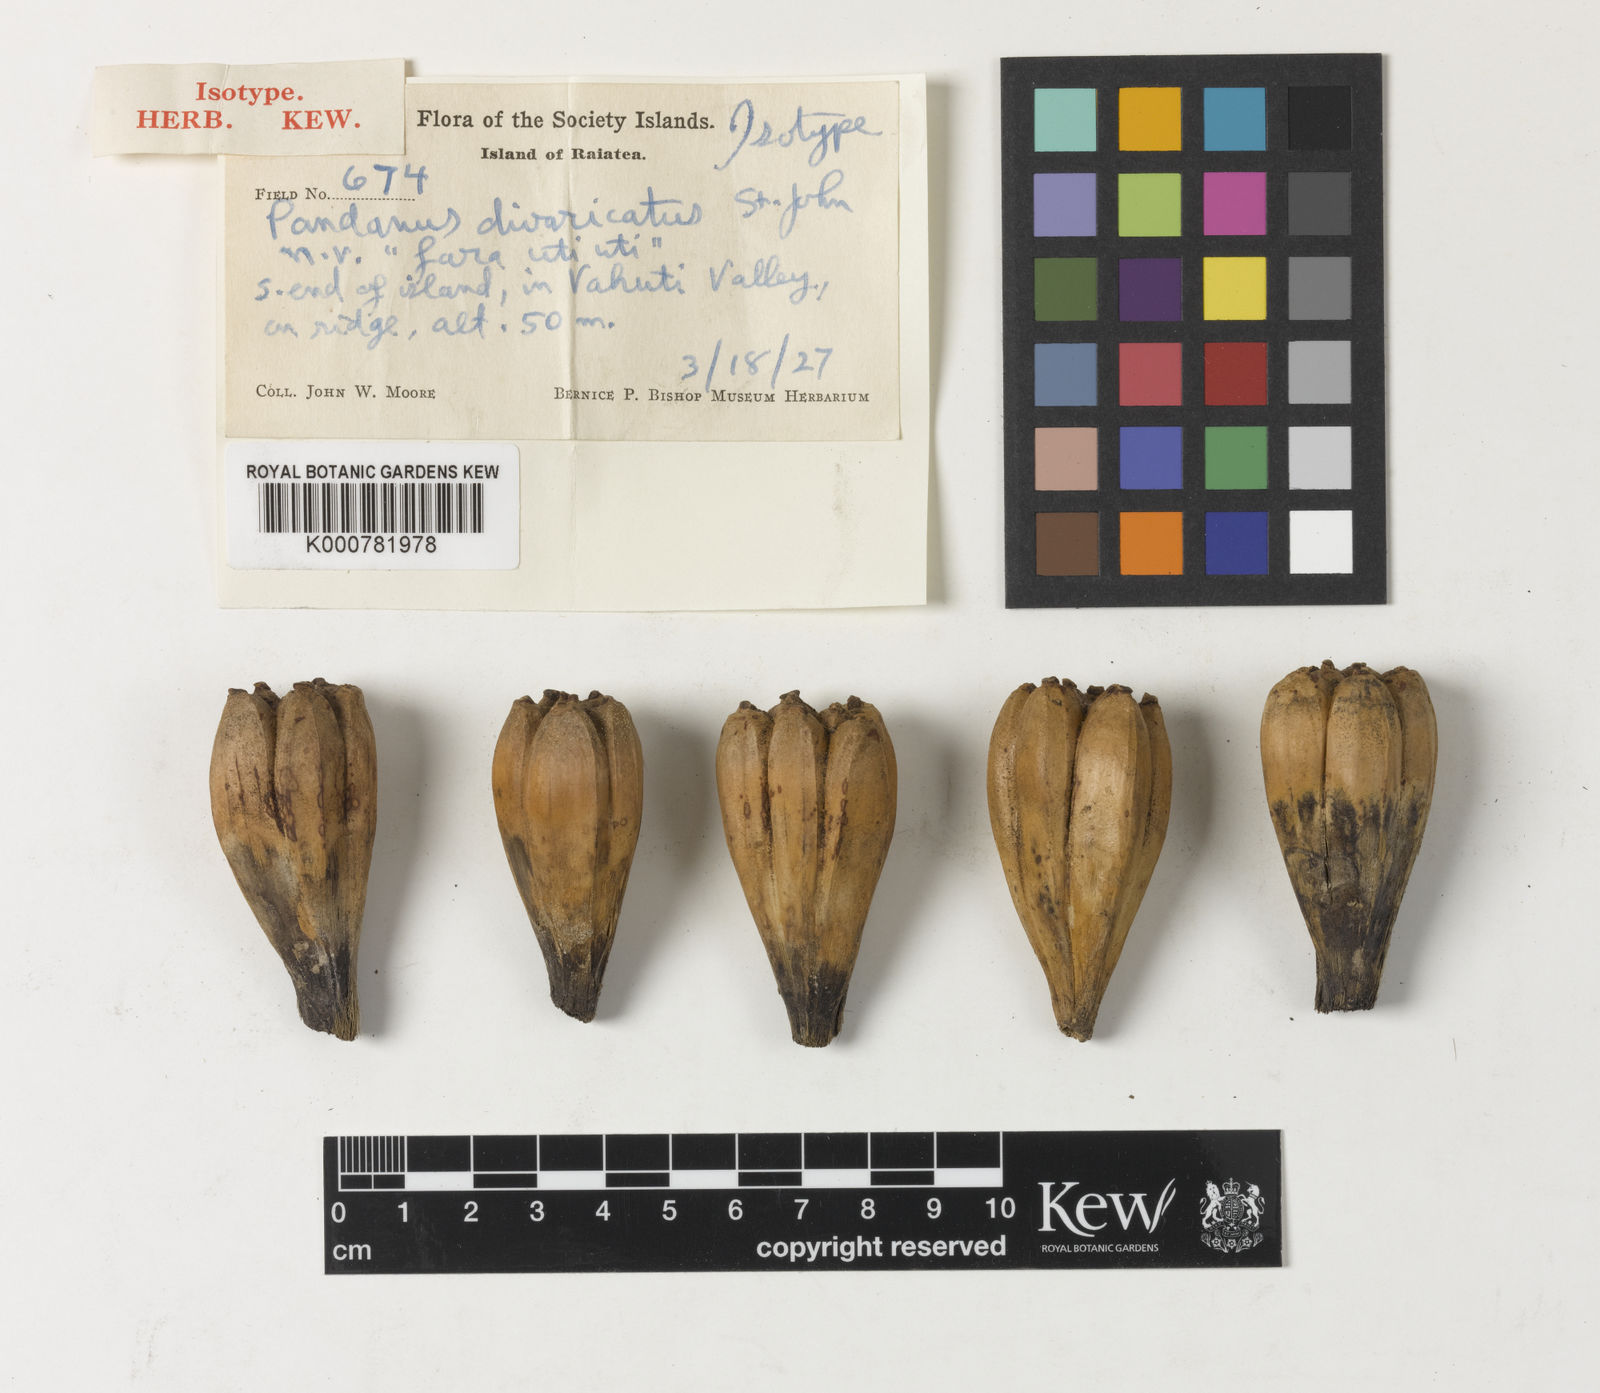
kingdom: Plantae
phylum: Tracheophyta
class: Liliopsida
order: Pandanales
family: Pandanaceae
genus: Pandanus
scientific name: Pandanus tectorius
